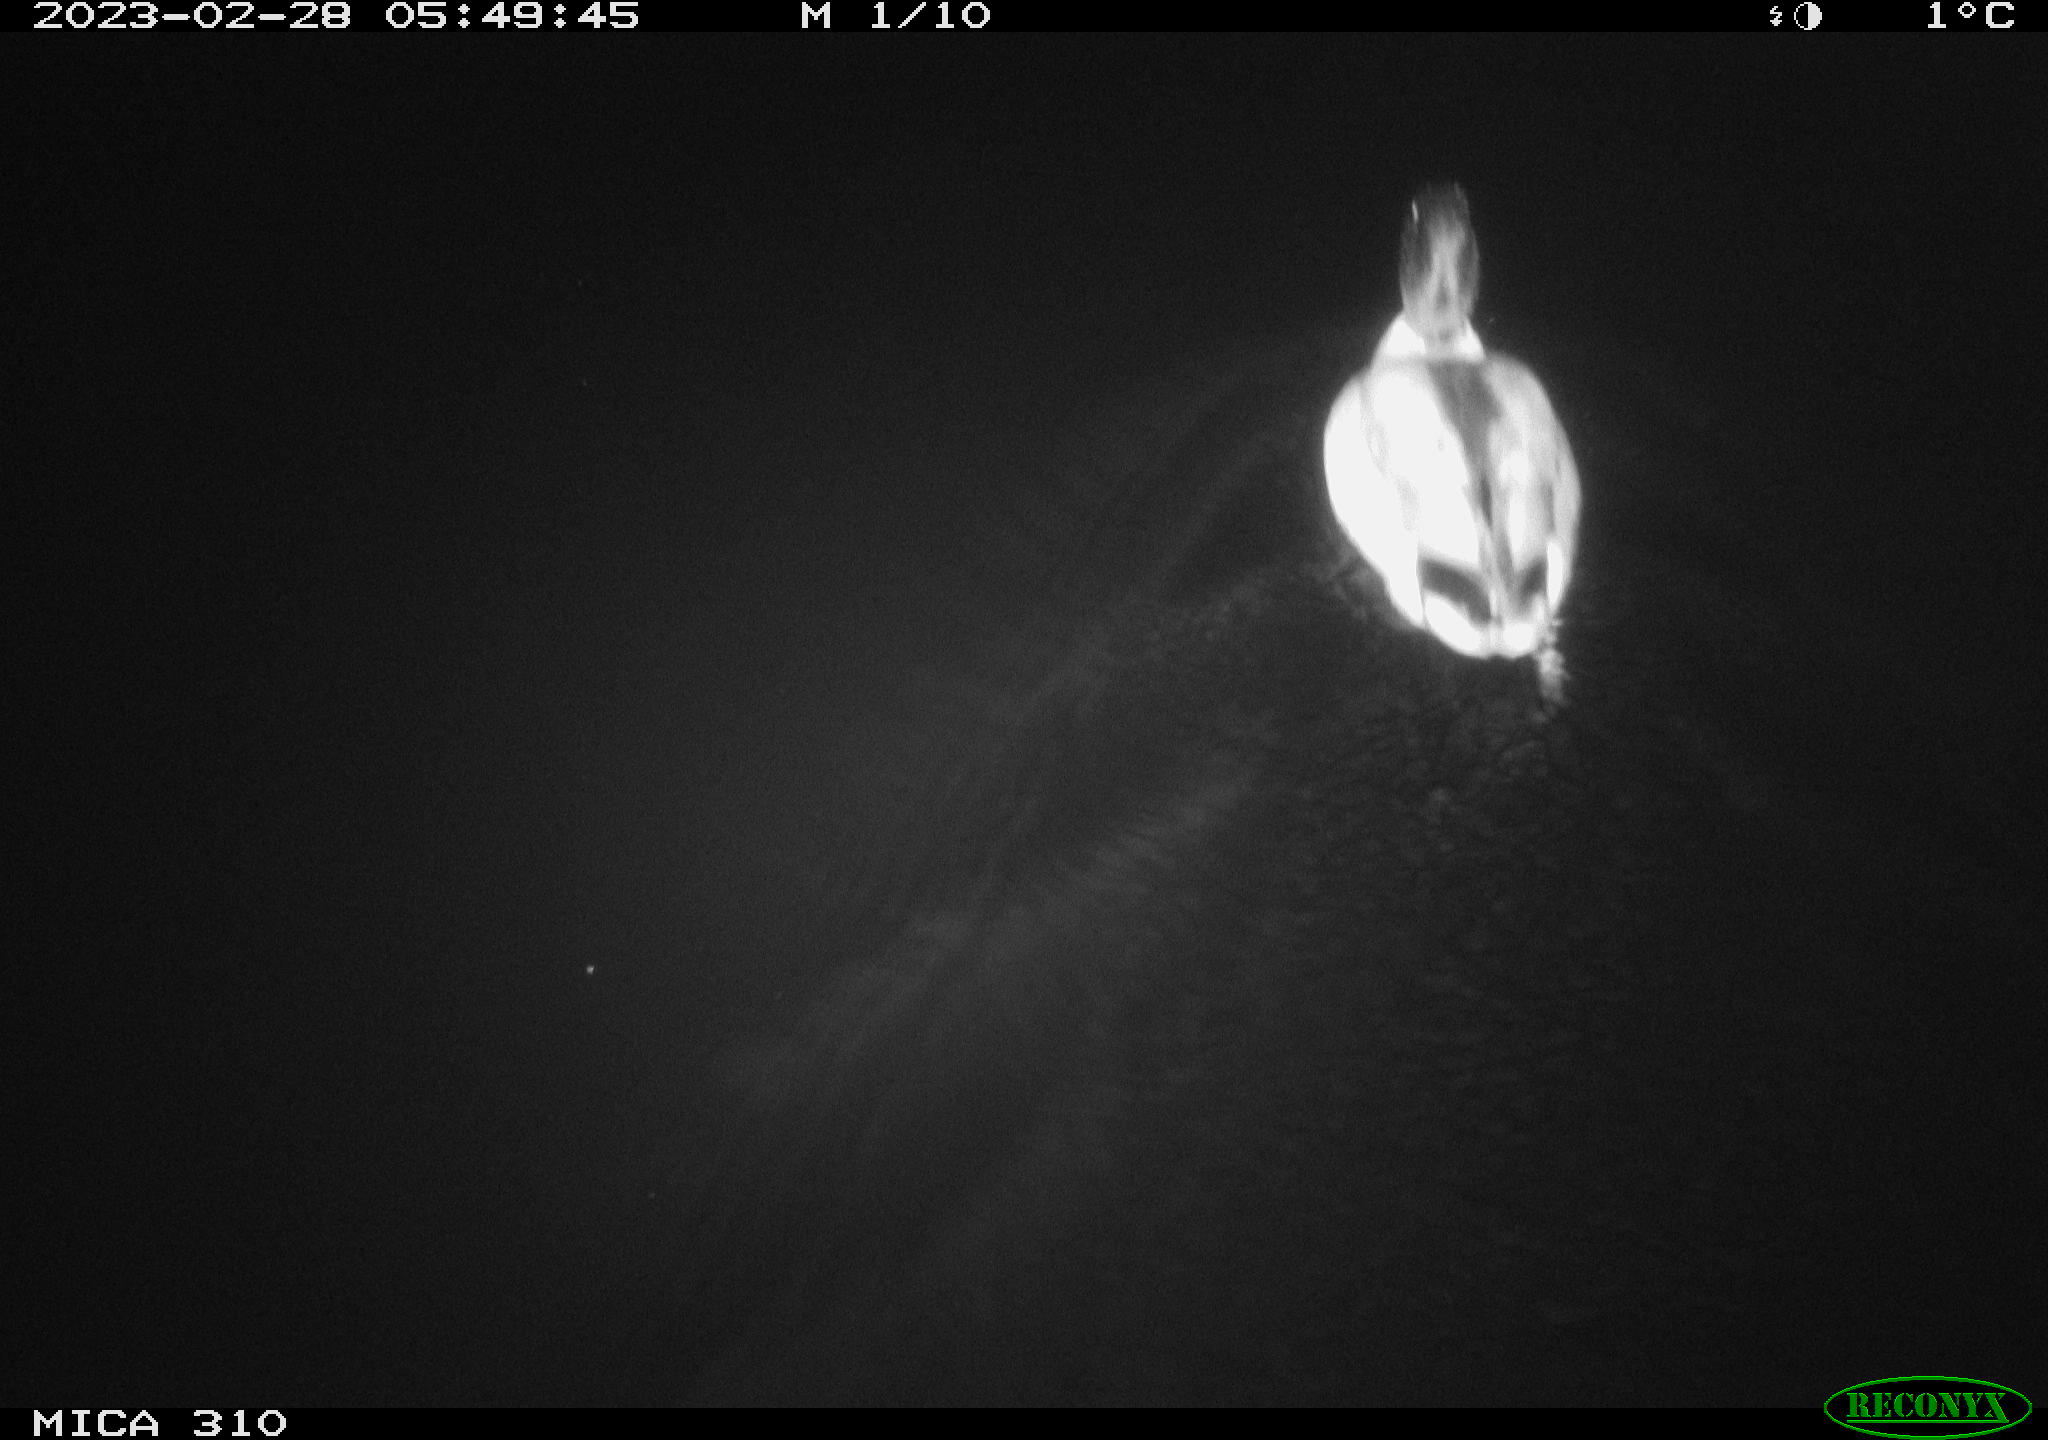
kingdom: Animalia
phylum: Chordata
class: Aves
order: Anseriformes
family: Anatidae
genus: Anas
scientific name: Anas
